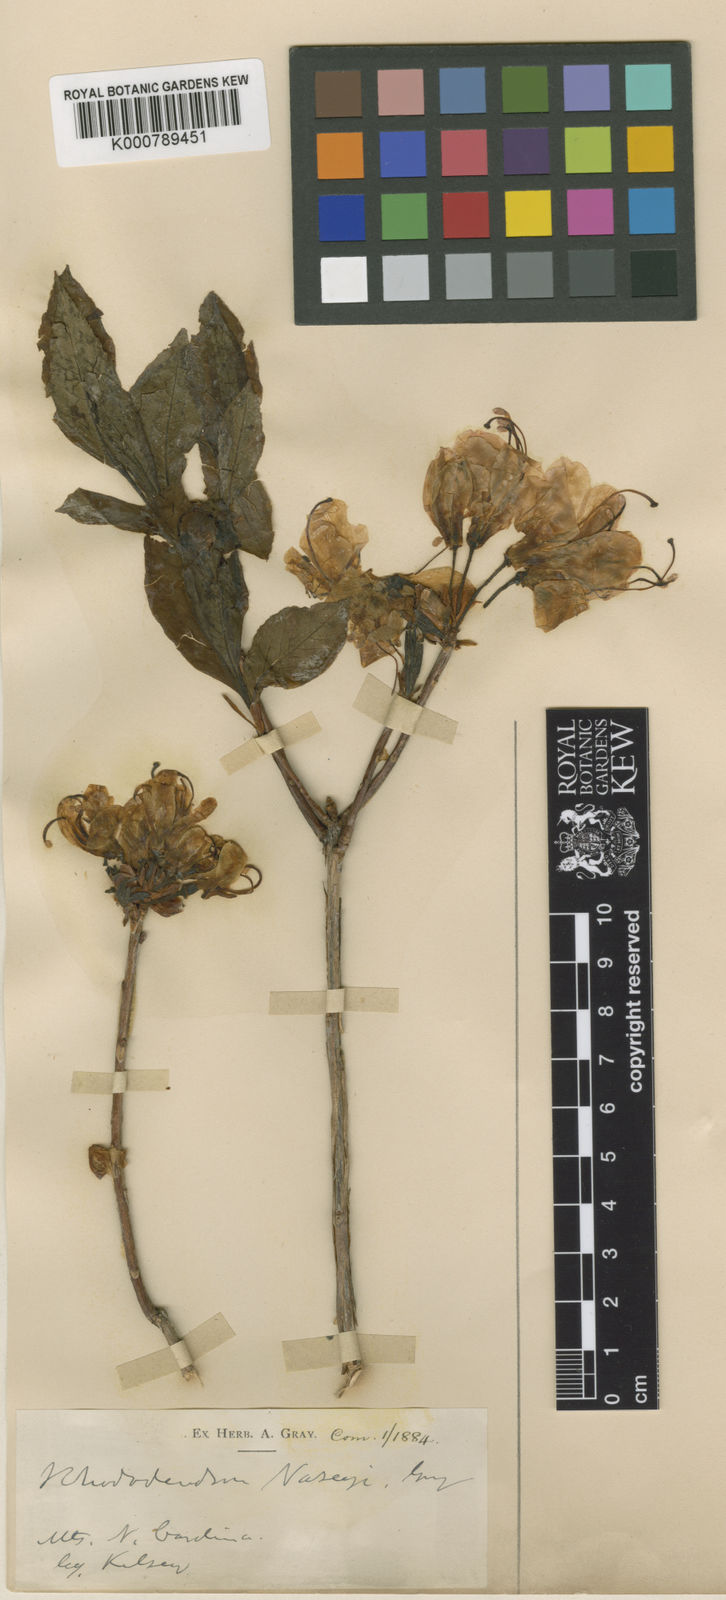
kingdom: Plantae
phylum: Tracheophyta
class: Magnoliopsida
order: Ericales
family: Ericaceae
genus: Rhododendron
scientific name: Rhododendron
